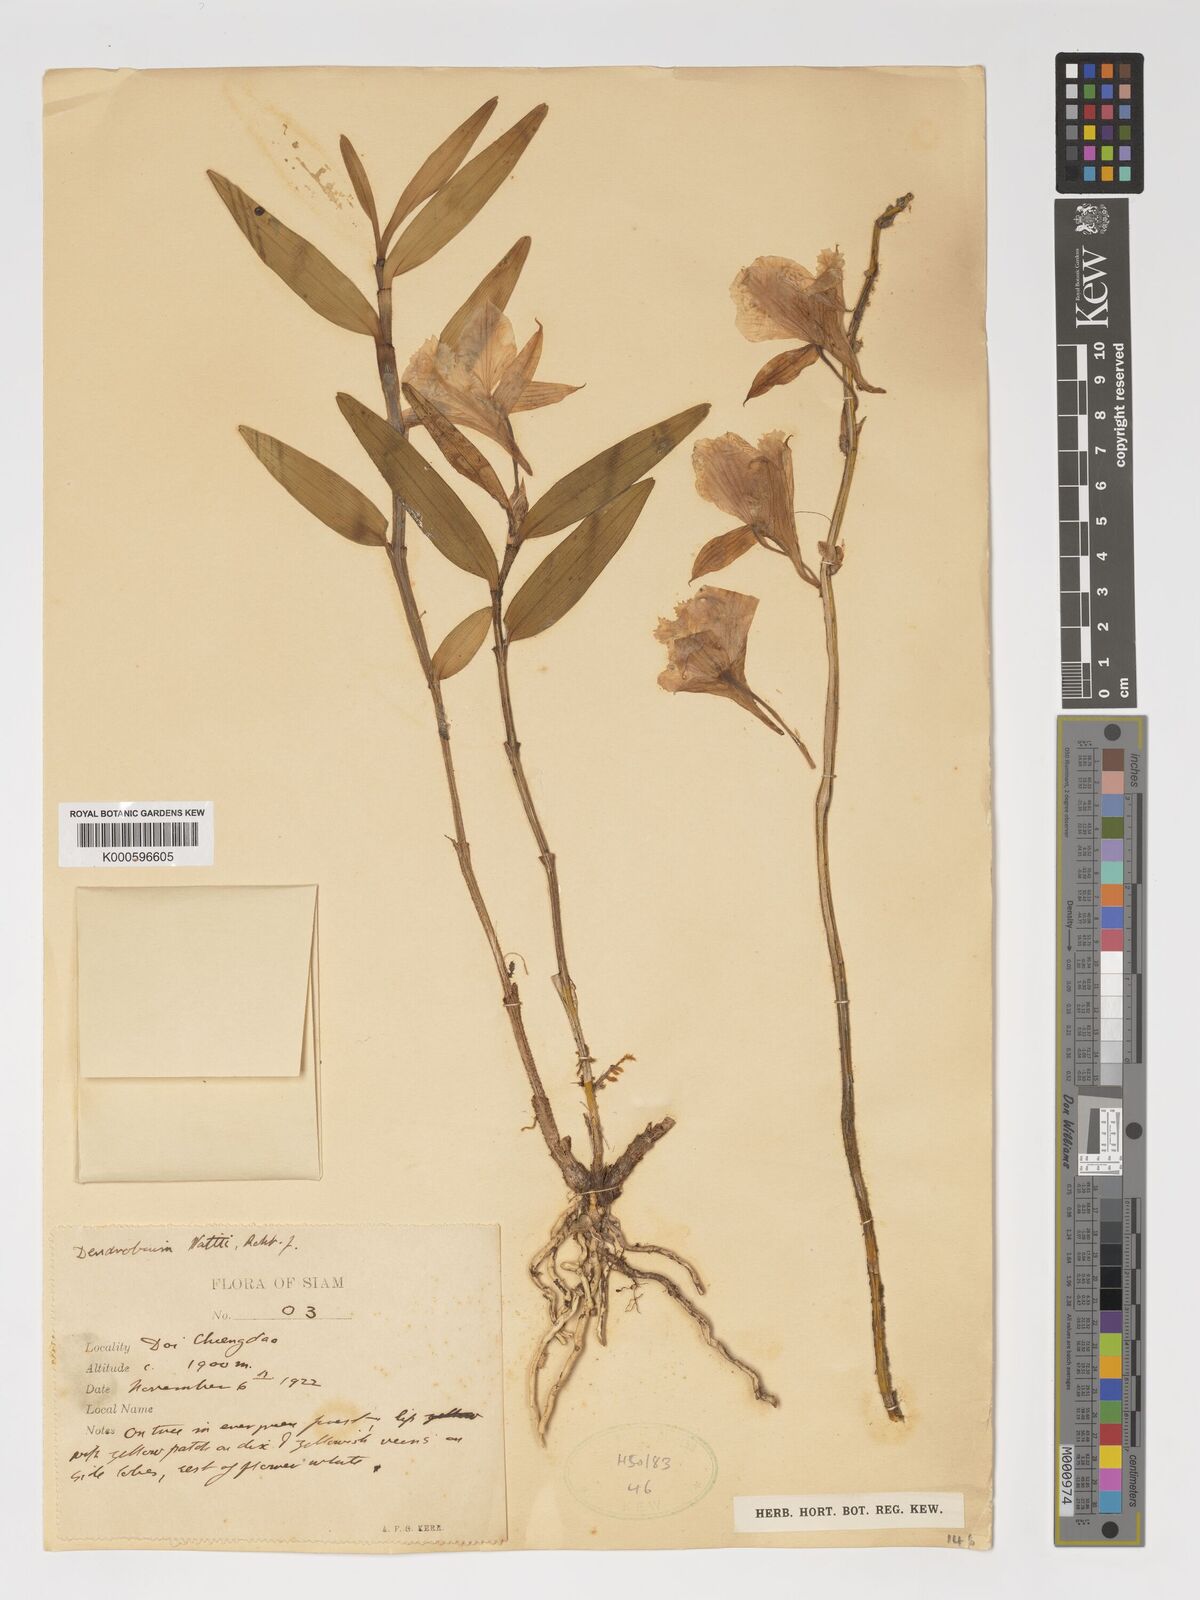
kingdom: Plantae
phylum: Tracheophyta
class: Liliopsida
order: Asparagales
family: Orchidaceae
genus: Dendrobium
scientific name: Dendrobium wattii
